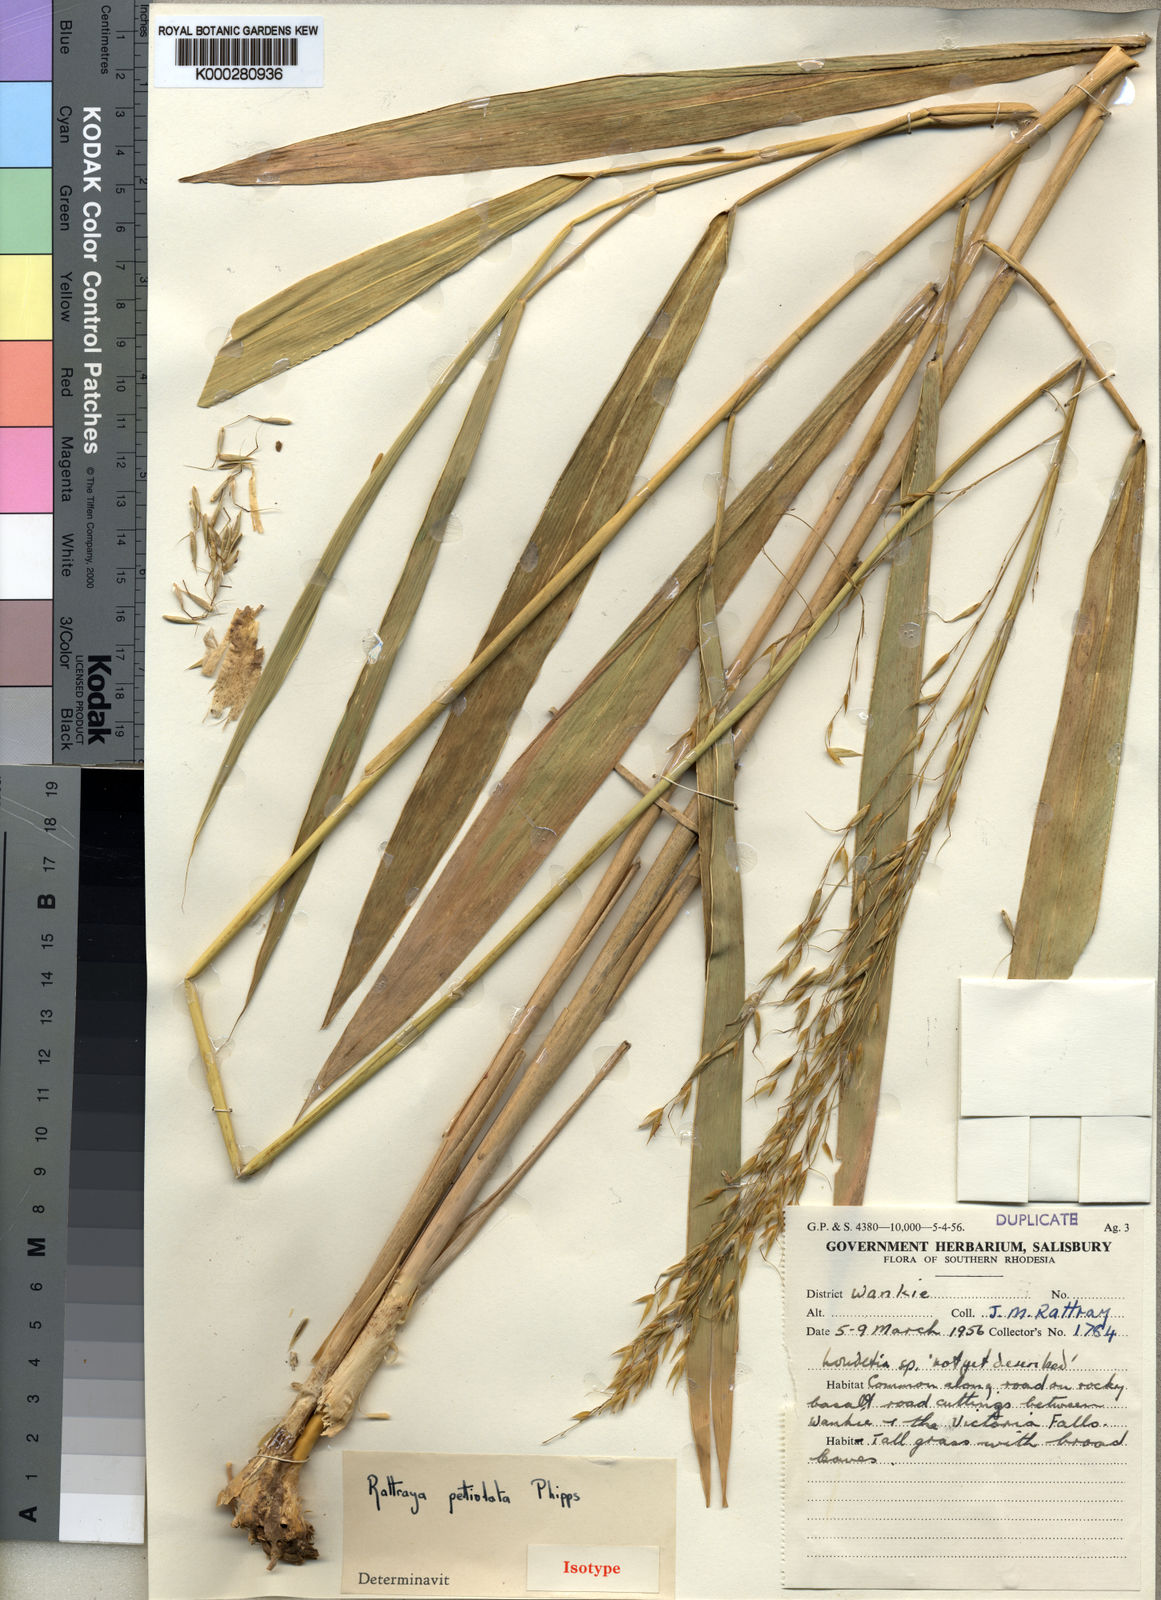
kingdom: Plantae
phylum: Tracheophyta
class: Liliopsida
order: Poales
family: Poaceae
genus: Danthoniopsis
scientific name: Danthoniopsis petiolata
